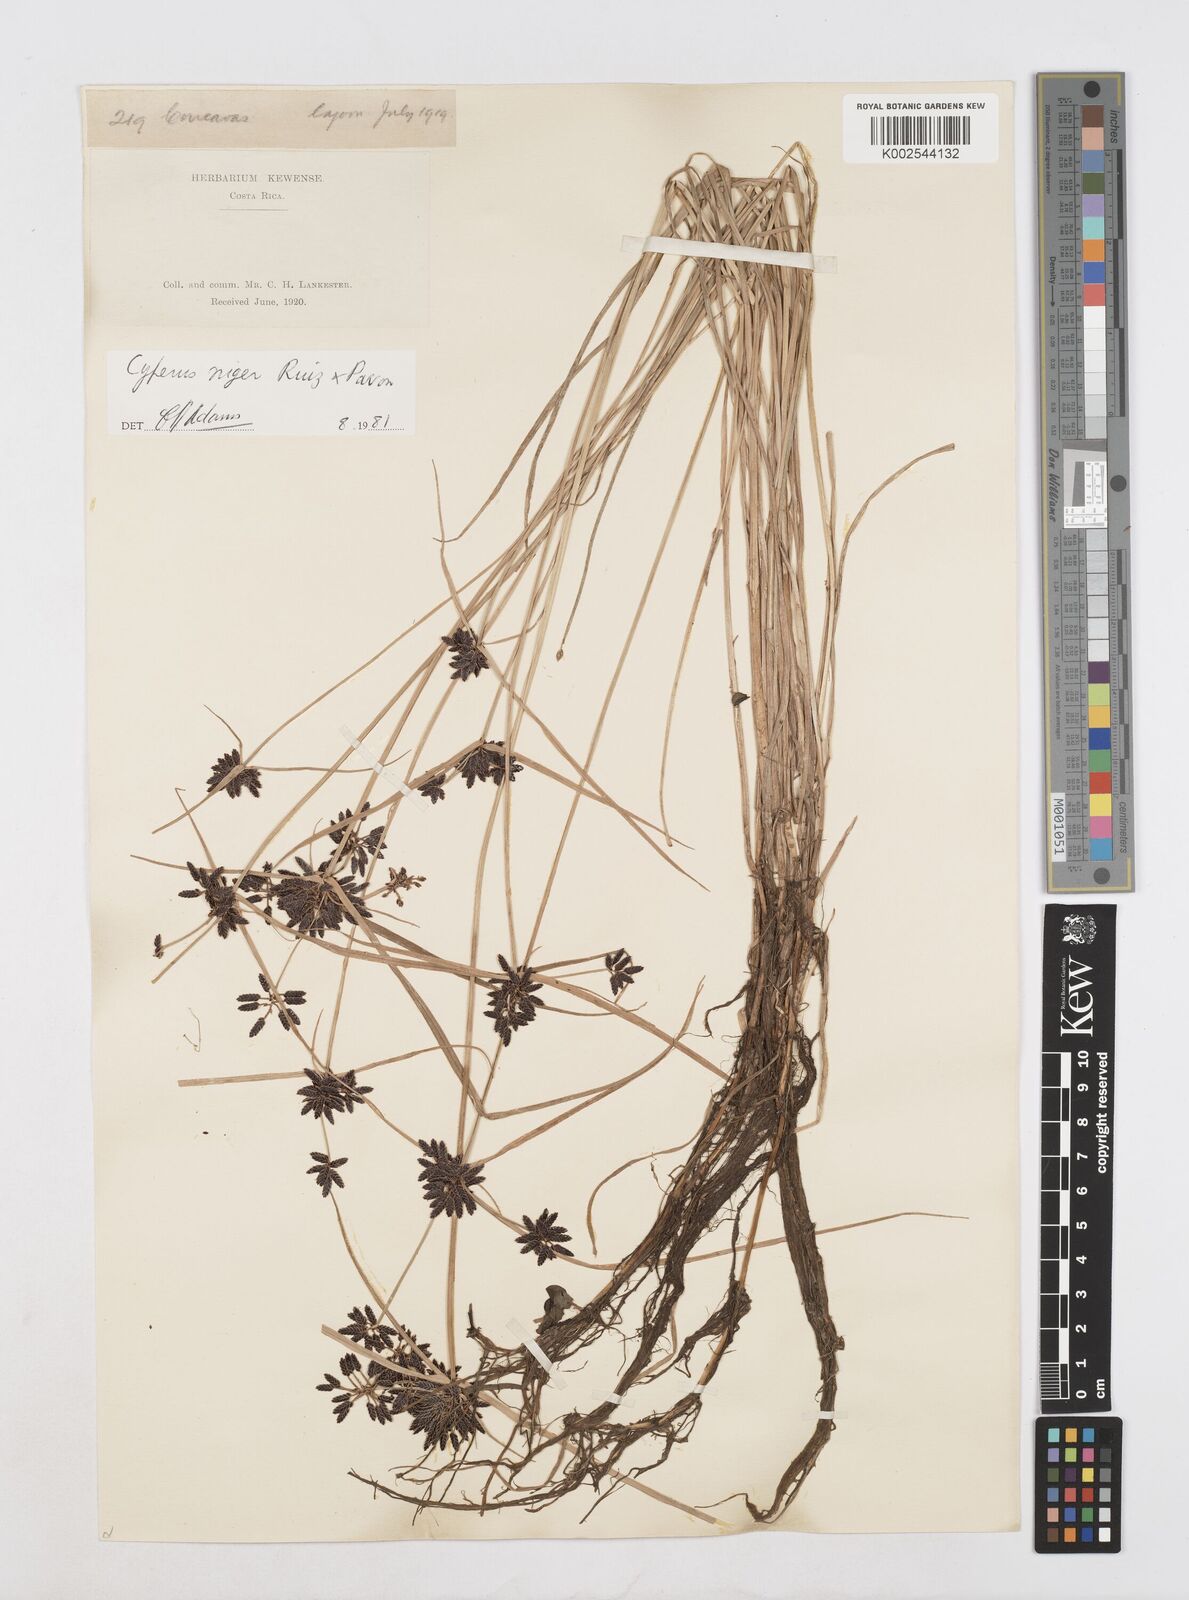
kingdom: Plantae
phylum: Tracheophyta
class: Liliopsida
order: Poales
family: Cyperaceae
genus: Cyperus
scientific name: Cyperus melanostachyus
